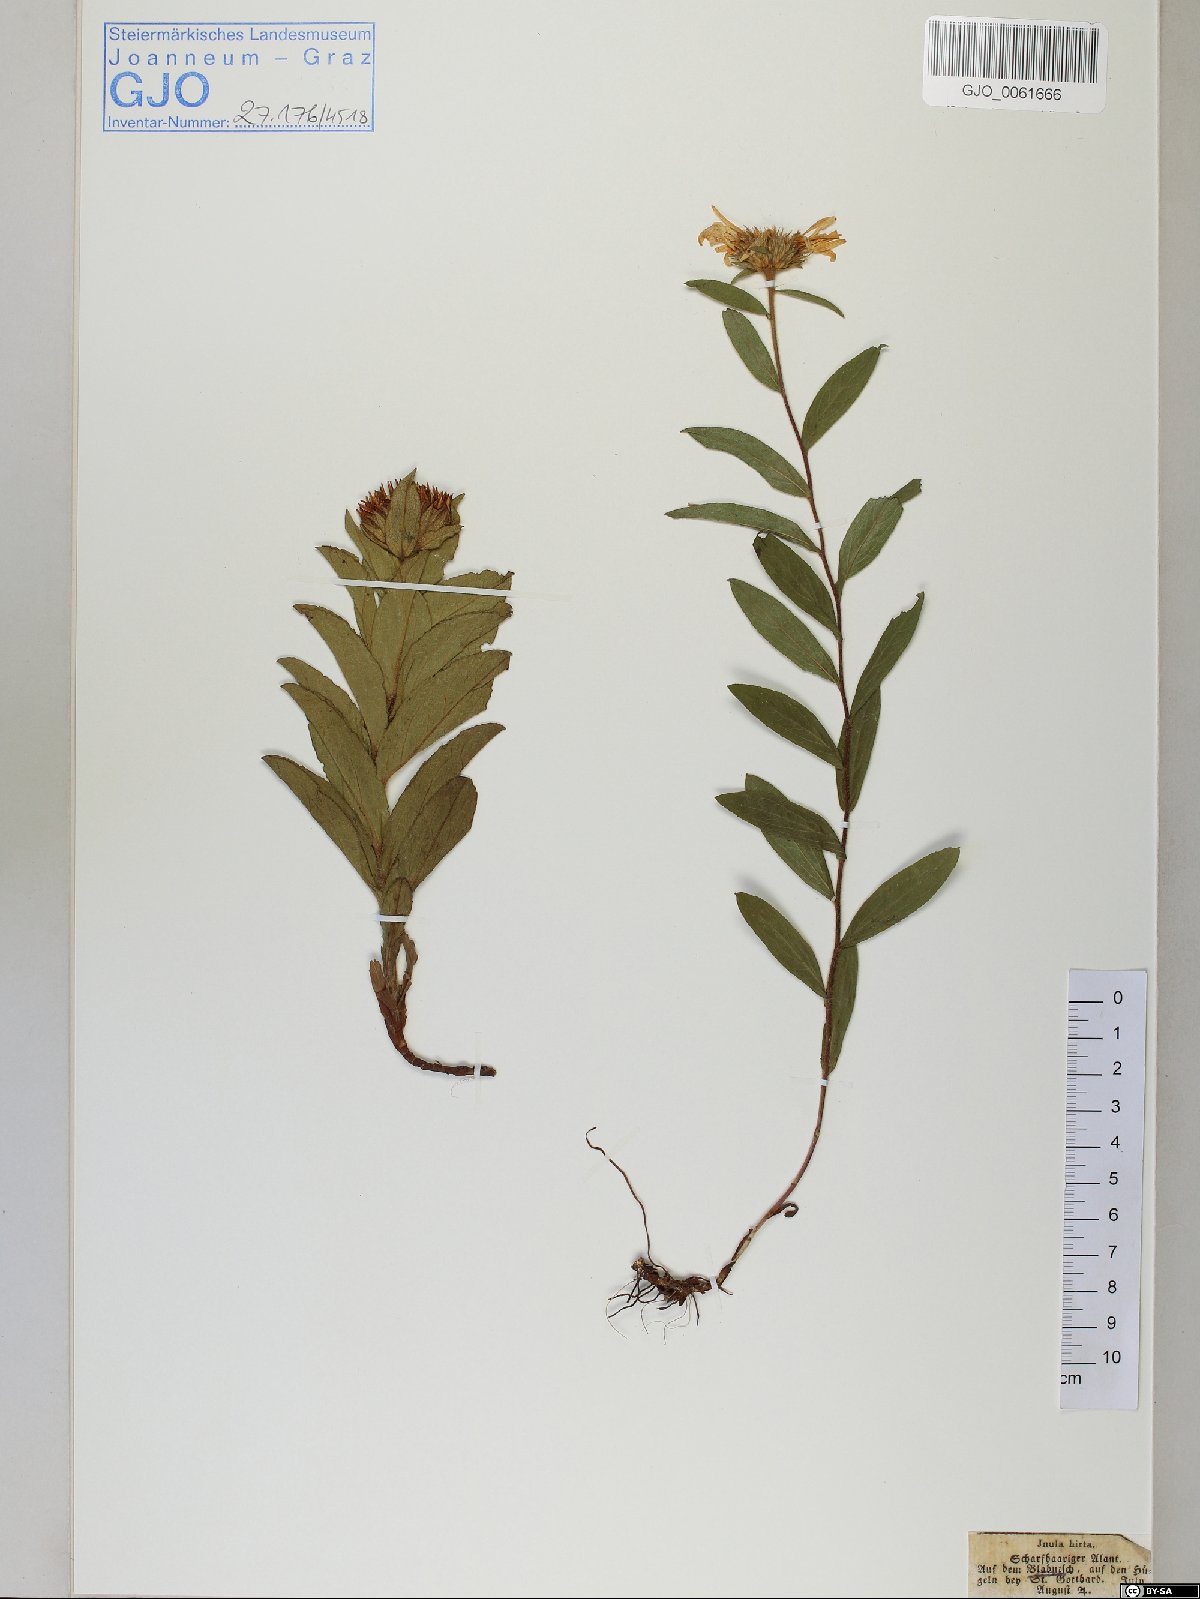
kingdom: Plantae
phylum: Tracheophyta
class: Magnoliopsida
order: Asterales
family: Asteraceae
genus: Pentanema
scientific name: Pentanema hirtum
